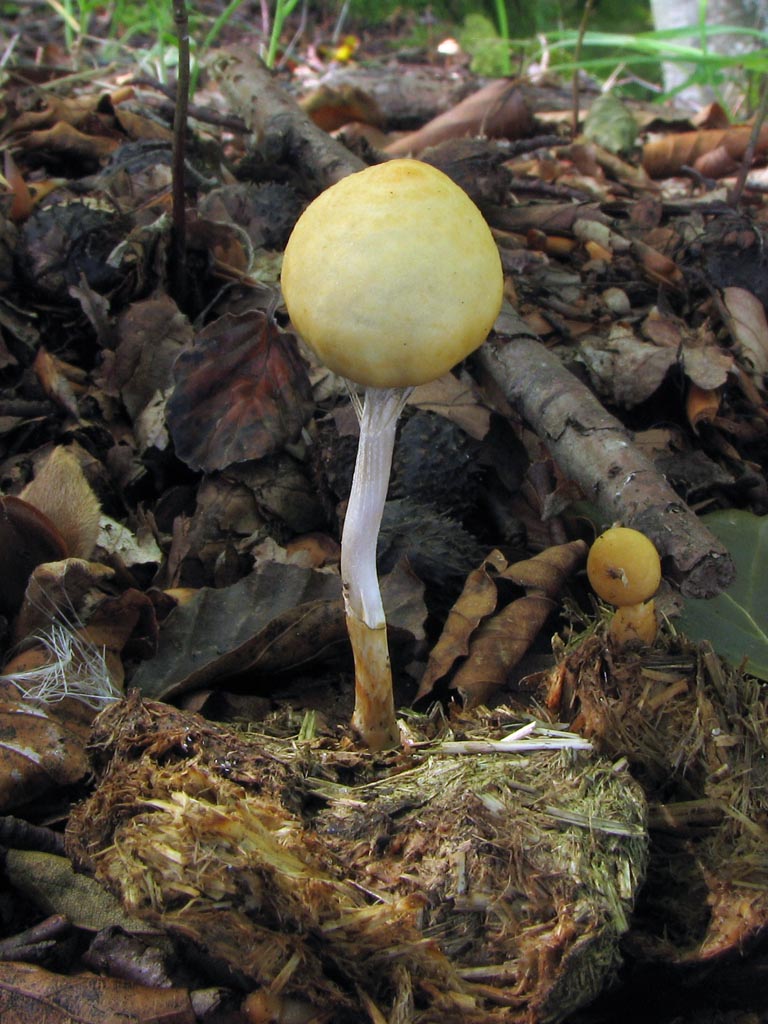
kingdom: Fungi
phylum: Basidiomycota
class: Agaricomycetes
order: Agaricales
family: Strophariaceae
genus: Protostropharia
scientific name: Protostropharia semiglobata
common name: halvkugleformet bredblad
